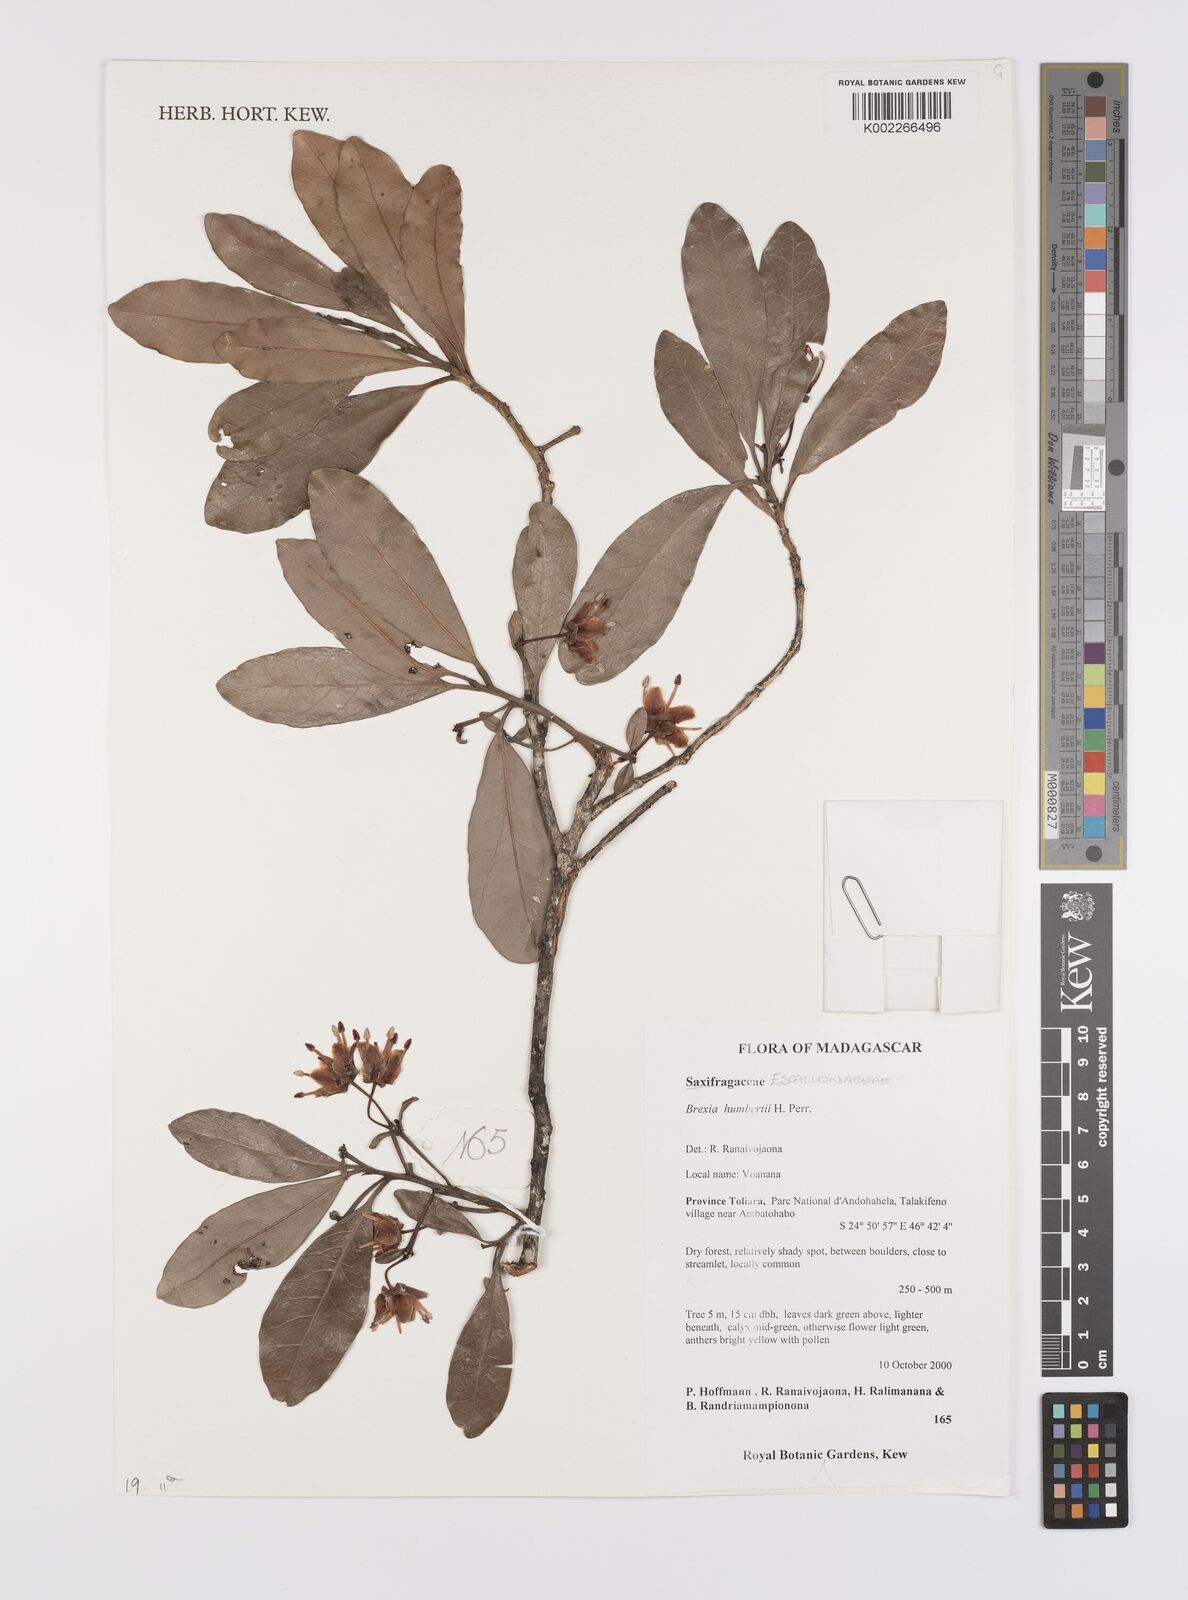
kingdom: Plantae
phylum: Tracheophyta
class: Magnoliopsida
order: Celastrales
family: Celastraceae
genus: Brexia
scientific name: Brexia humbertii
